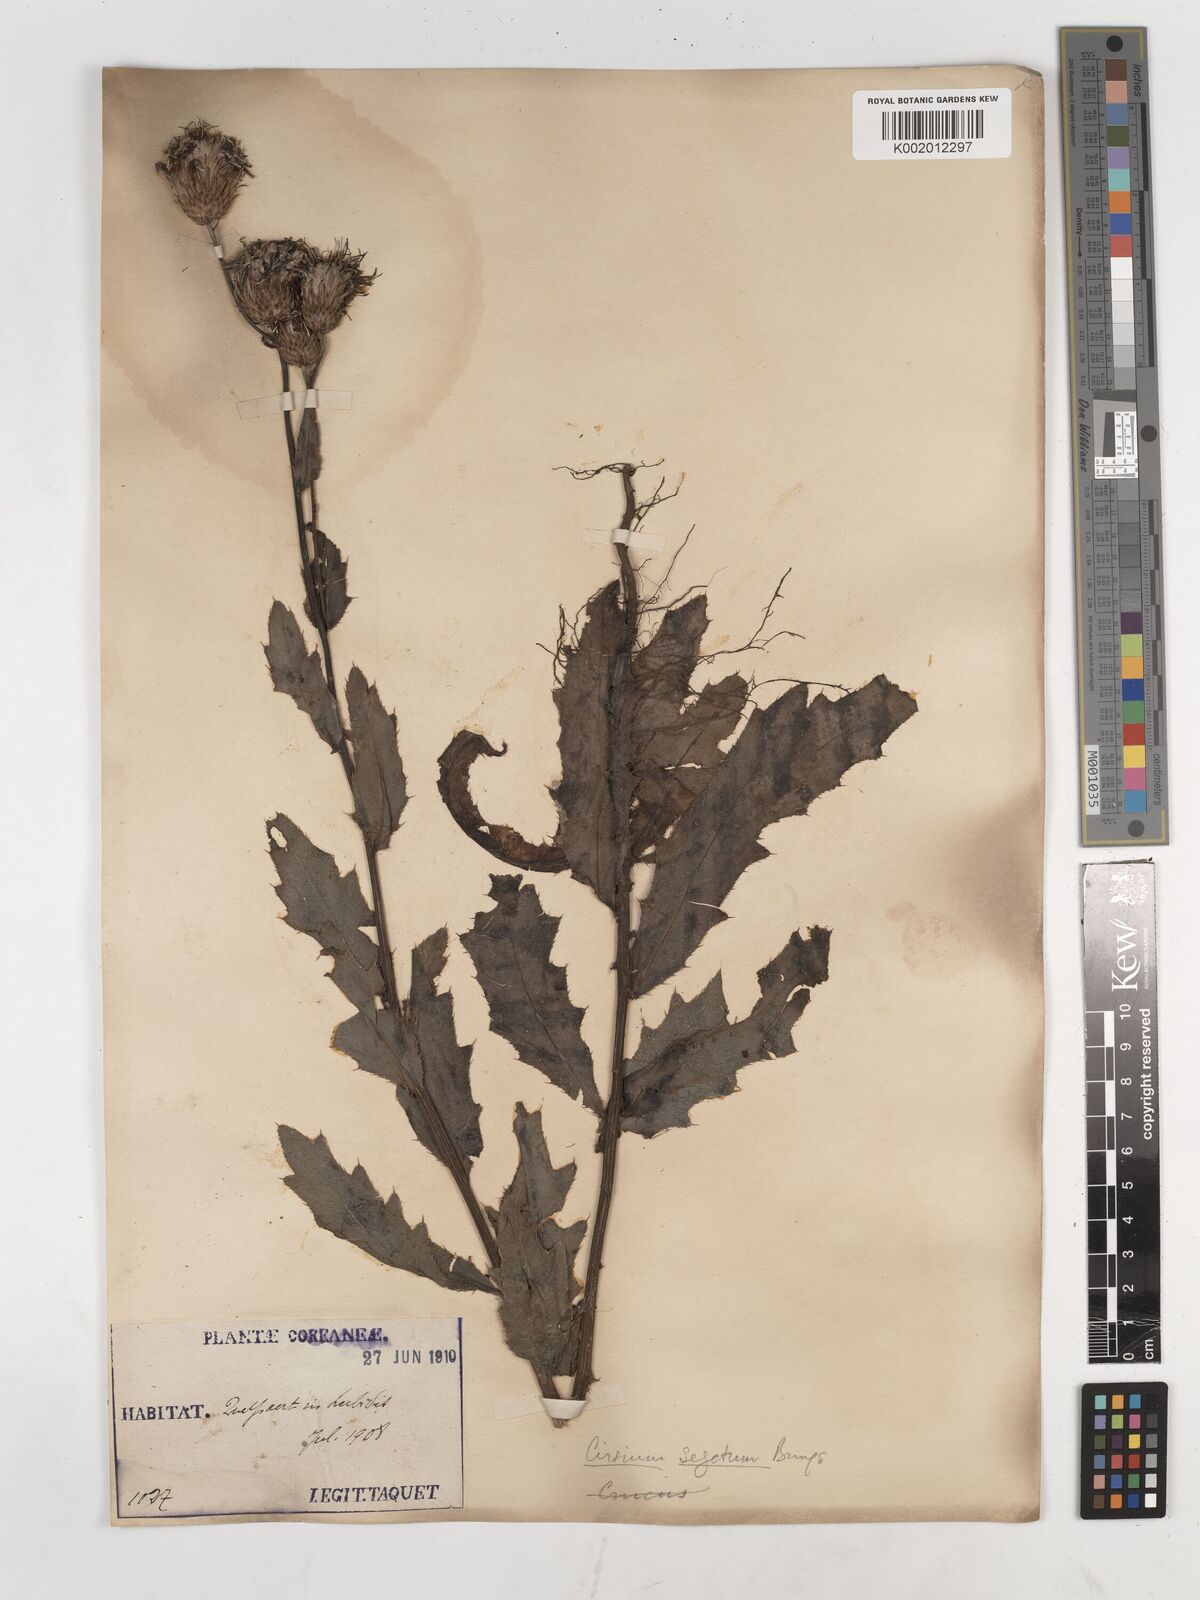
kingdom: Plantae
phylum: Tracheophyta
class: Magnoliopsida
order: Asterales
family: Asteraceae
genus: Cirsium
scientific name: Cirsium arvense
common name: Creeping thistle
